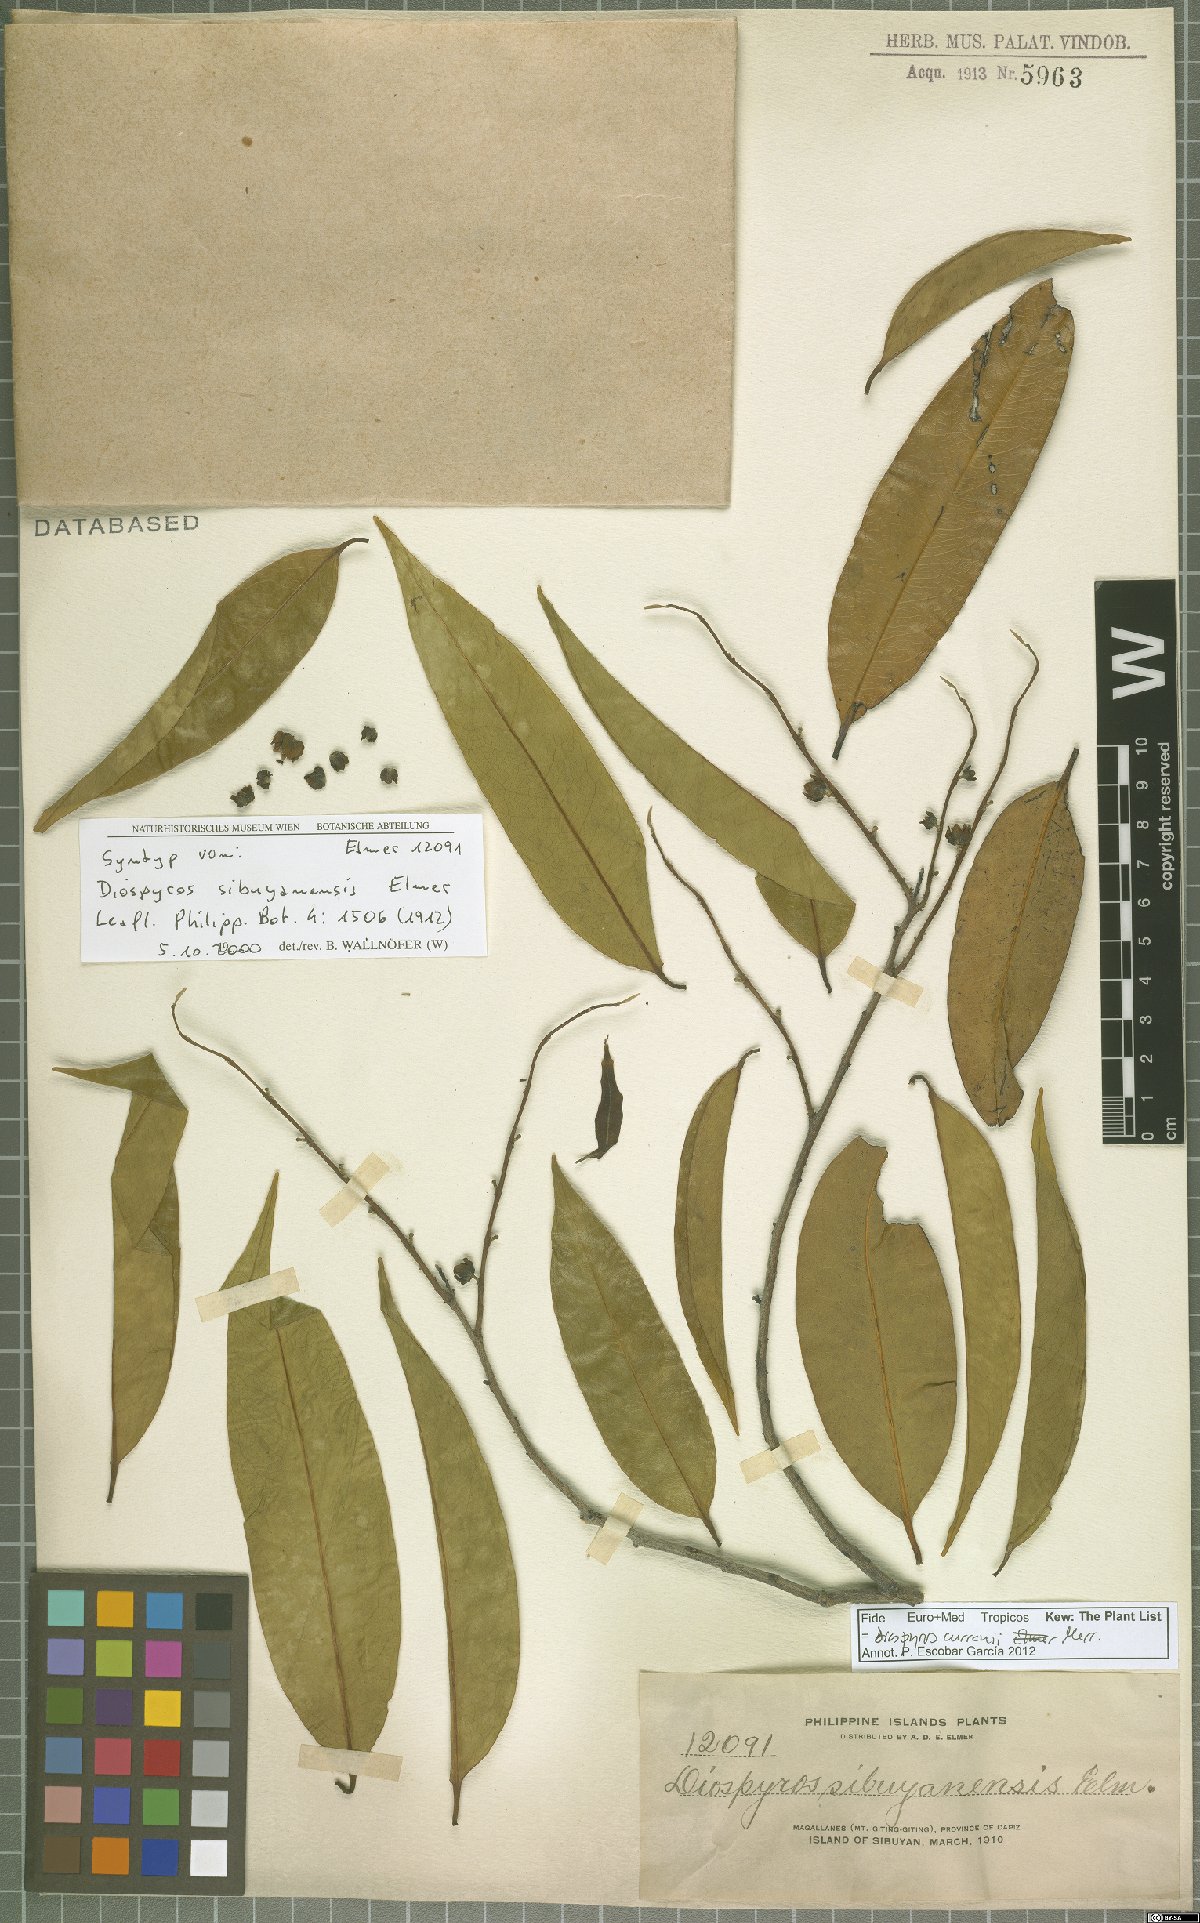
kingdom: Plantae
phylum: Tracheophyta
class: Magnoliopsida
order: Ericales
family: Ebenaceae
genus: Diospyros
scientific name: Diospyros curranii
